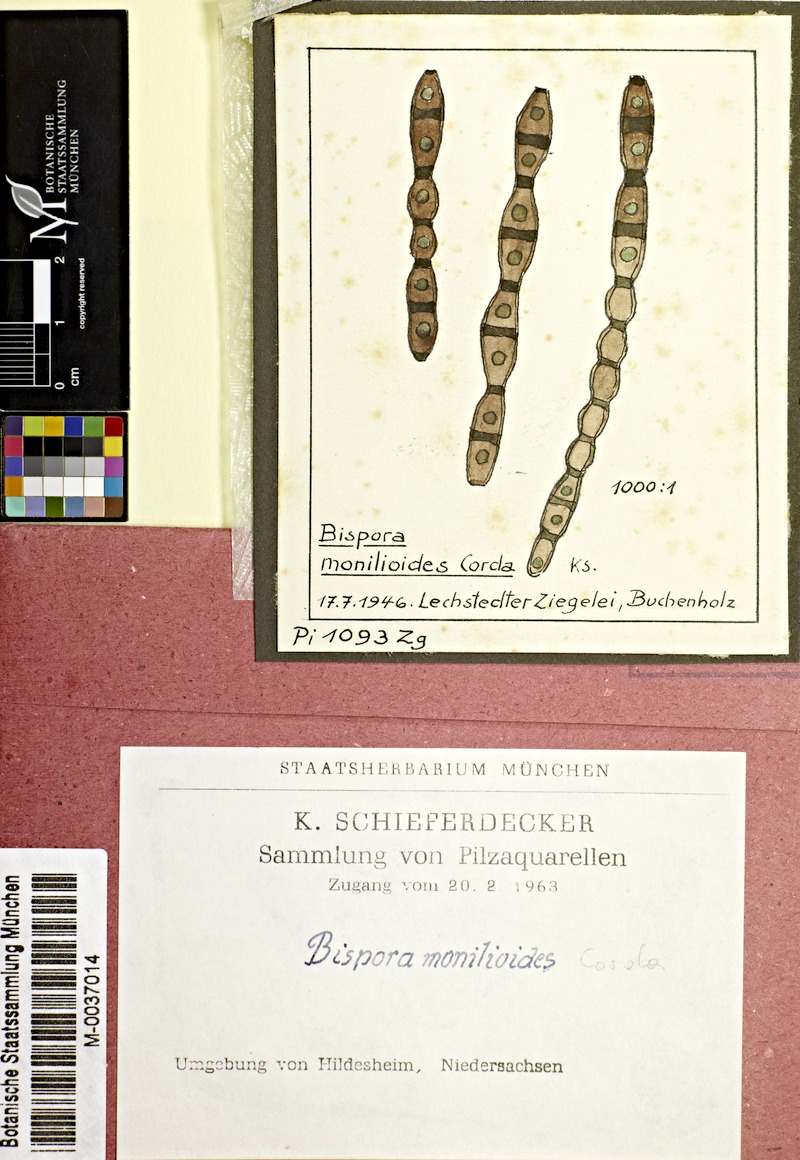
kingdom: Fungi
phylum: Ascomycota
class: Leotiomycetes
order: Helotiales
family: Helotiaceae
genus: Bispora
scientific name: Bispora antennata
